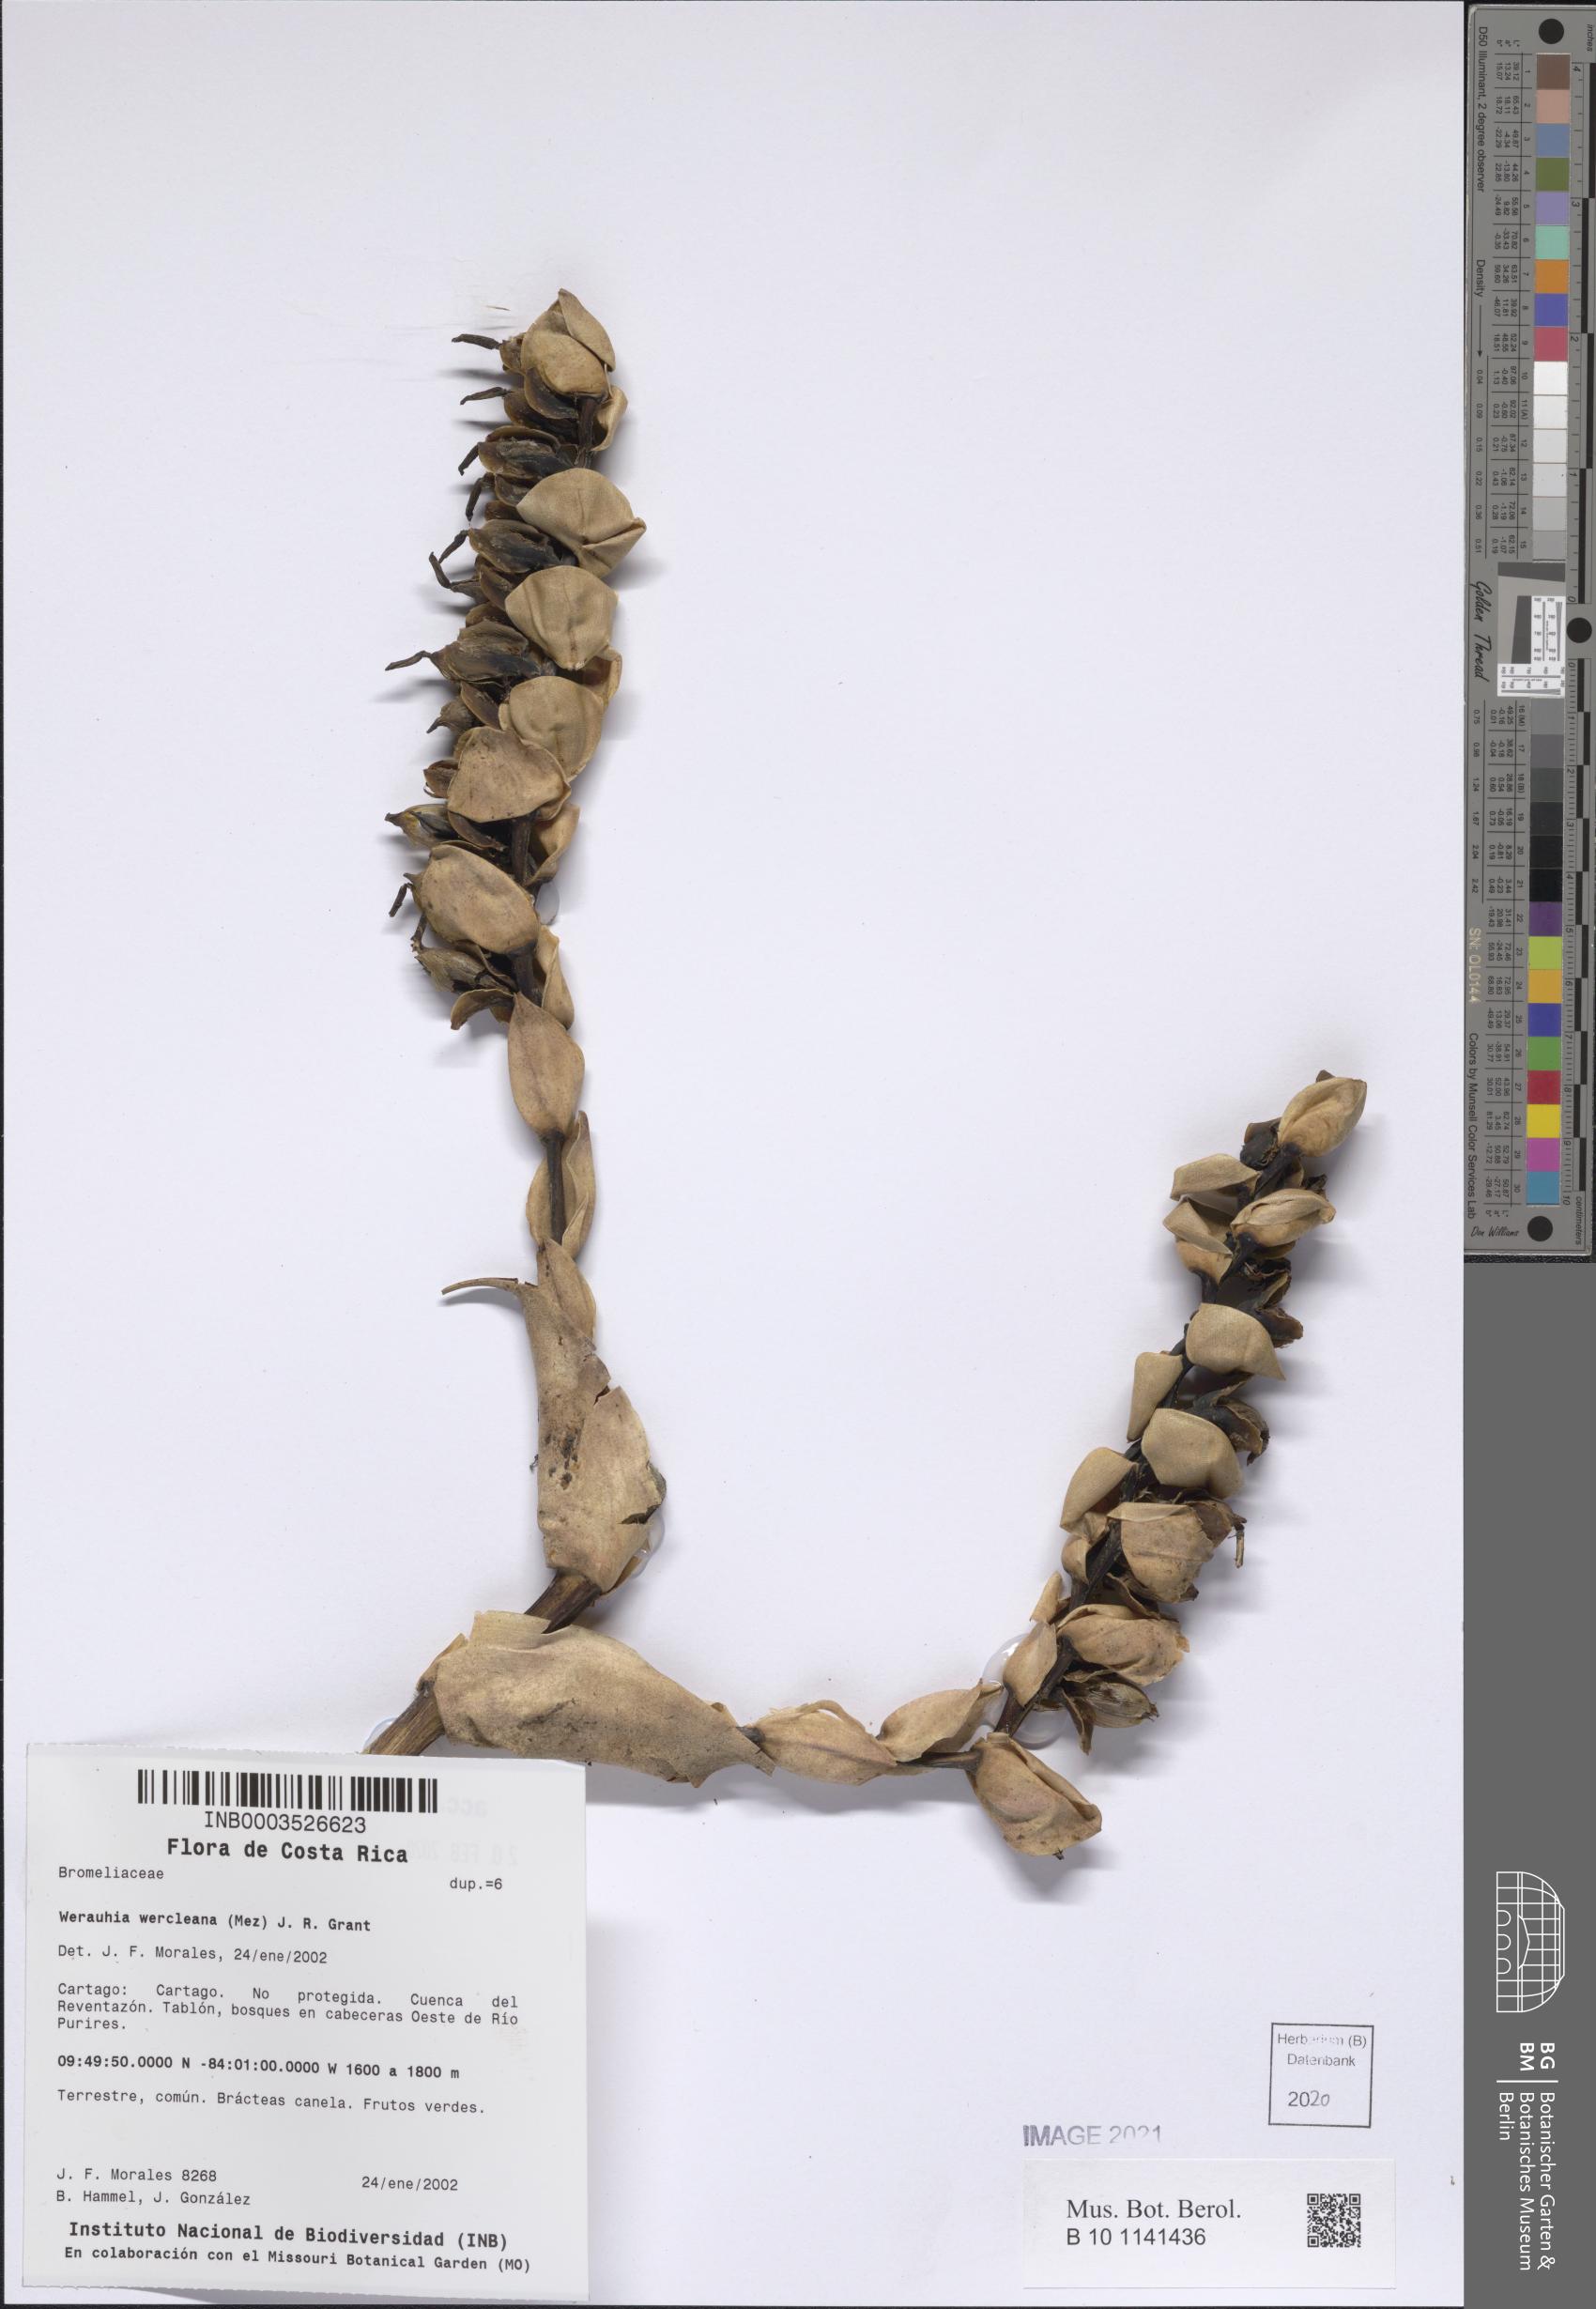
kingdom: Plantae
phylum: Tracheophyta
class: Liliopsida
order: Poales
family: Bromeliaceae
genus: Werauhia
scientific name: Werauhia werckleana
